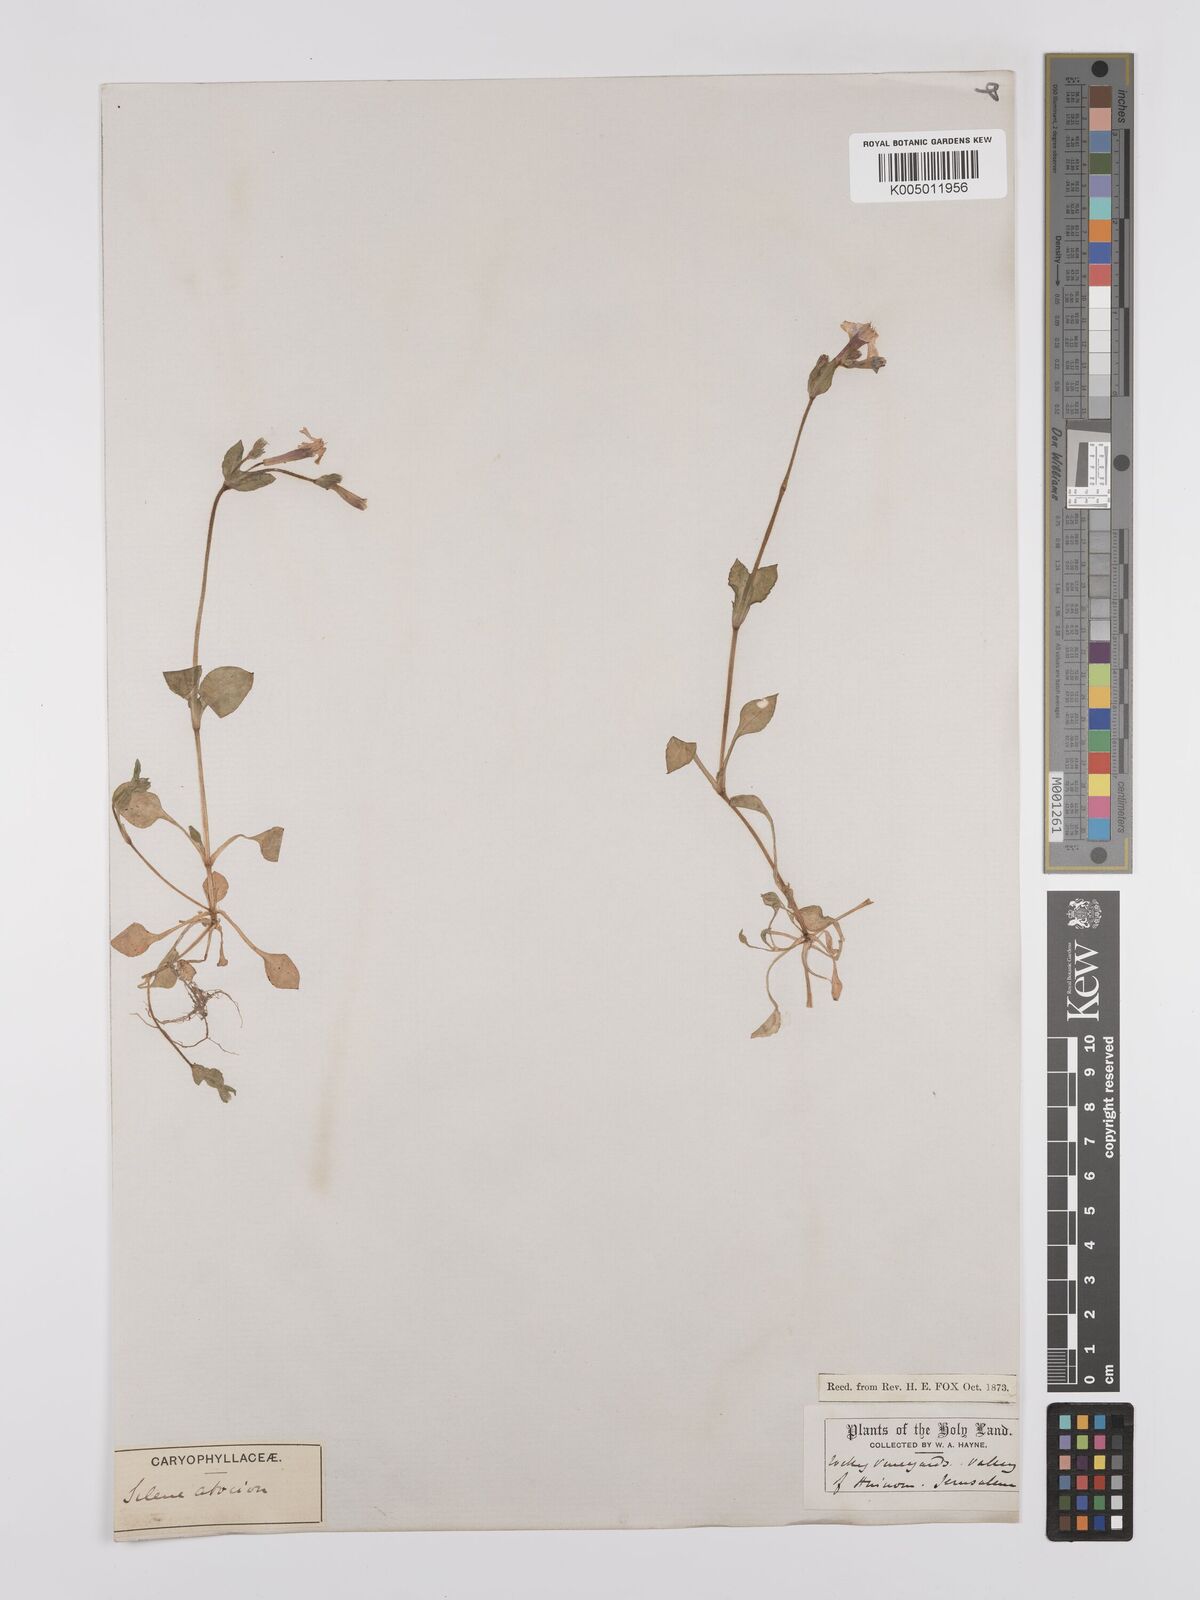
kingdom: Plantae
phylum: Tracheophyta
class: Magnoliopsida
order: Caryophyllales
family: Caryophyllaceae
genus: Silene
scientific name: Silene aegyptiaca
